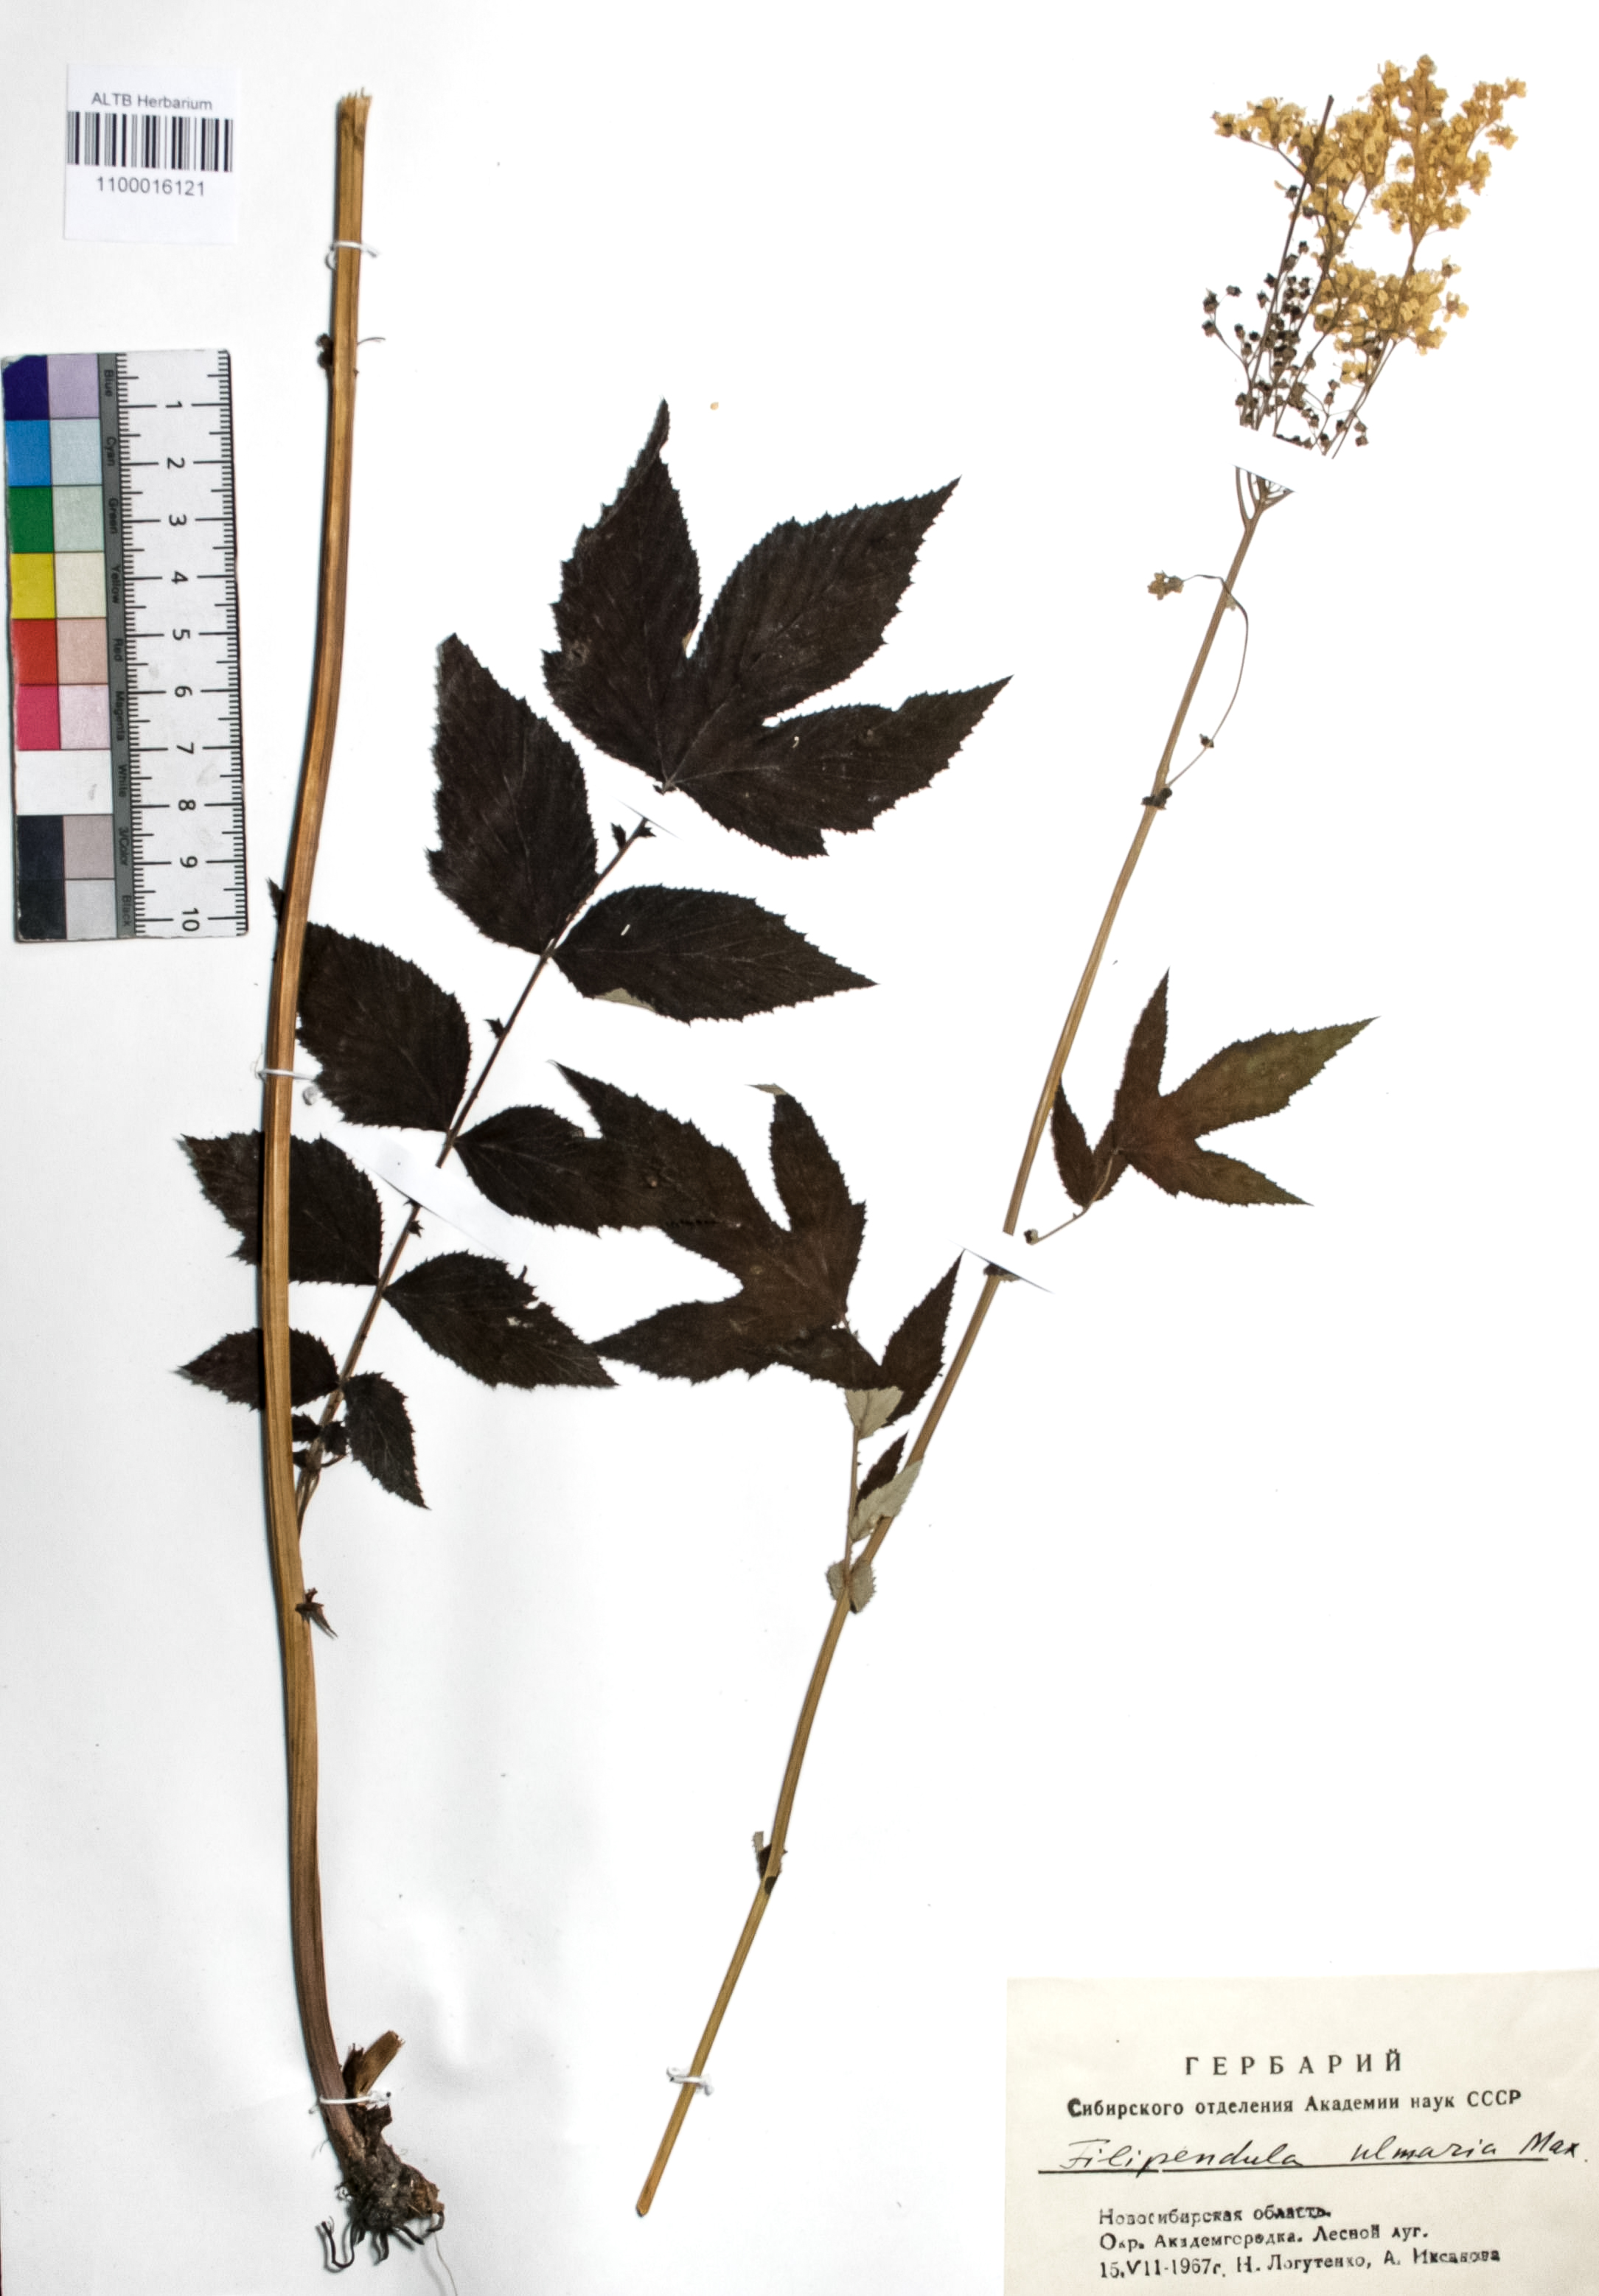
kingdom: Plantae
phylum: Tracheophyta
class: Magnoliopsida
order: Rosales
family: Rosaceae
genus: Filipendula
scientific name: Filipendula ulmaria
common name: Meadowsweet
